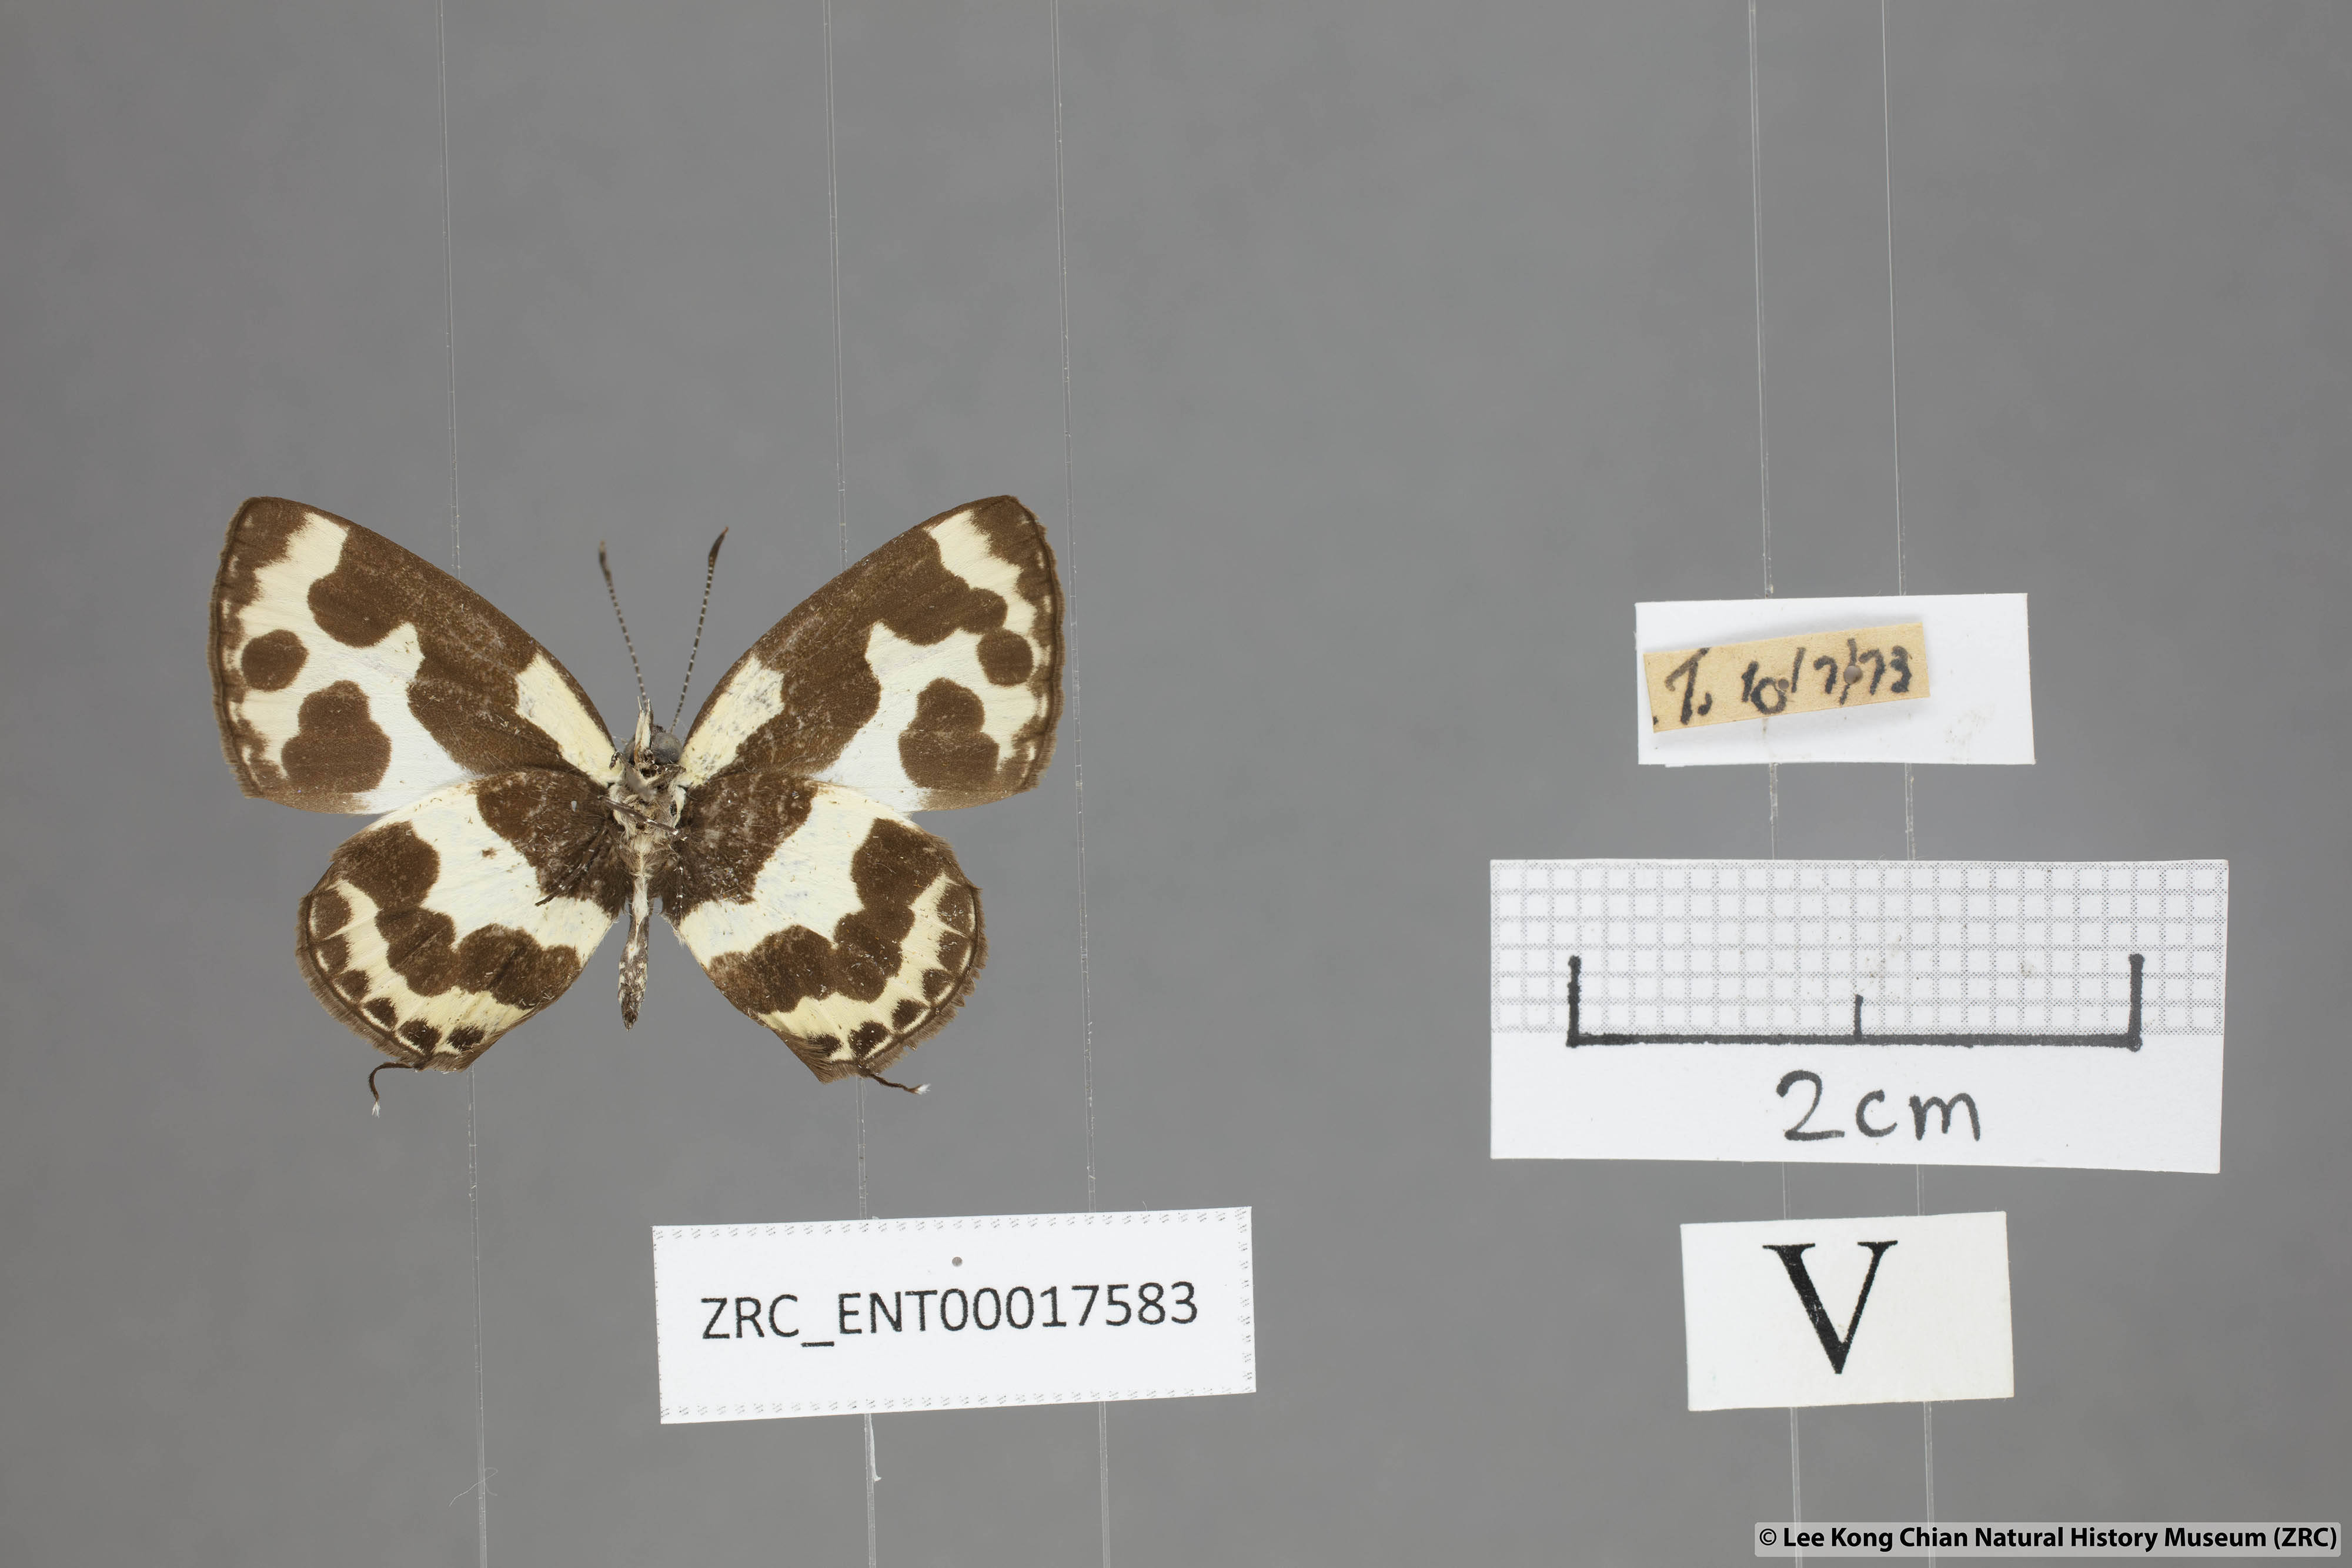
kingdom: Animalia
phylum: Arthropoda
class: Insecta
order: Lepidoptera
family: Lycaenidae
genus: Caleta
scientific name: Caleta elna
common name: Elbowed pierrot
